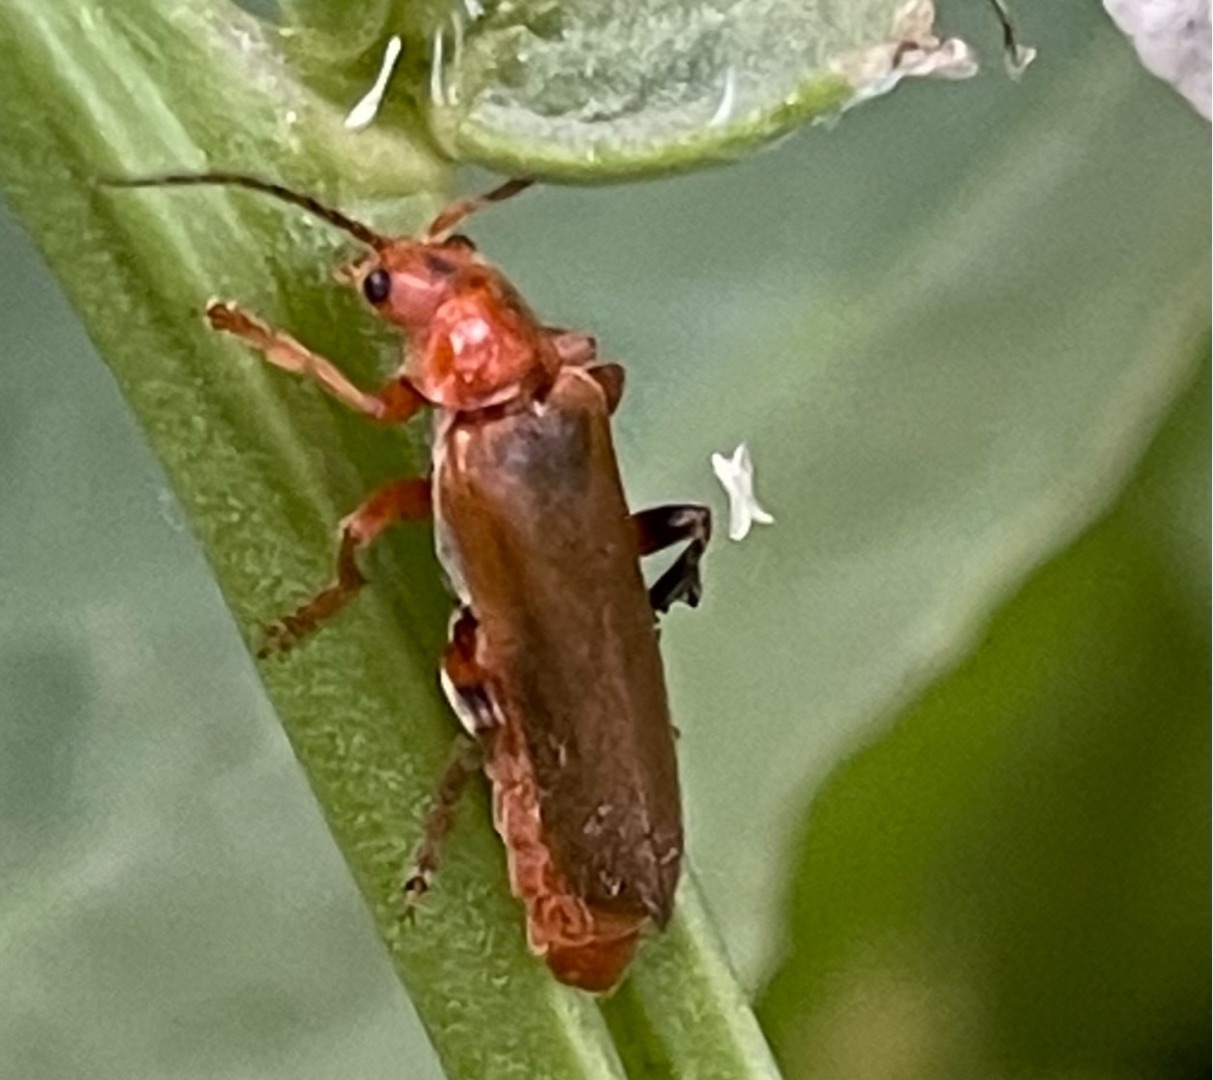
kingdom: Animalia
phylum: Arthropoda
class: Insecta
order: Coleoptera
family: Cantharidae
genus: Cantharis
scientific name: Cantharis livida
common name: Gul blødvinge
